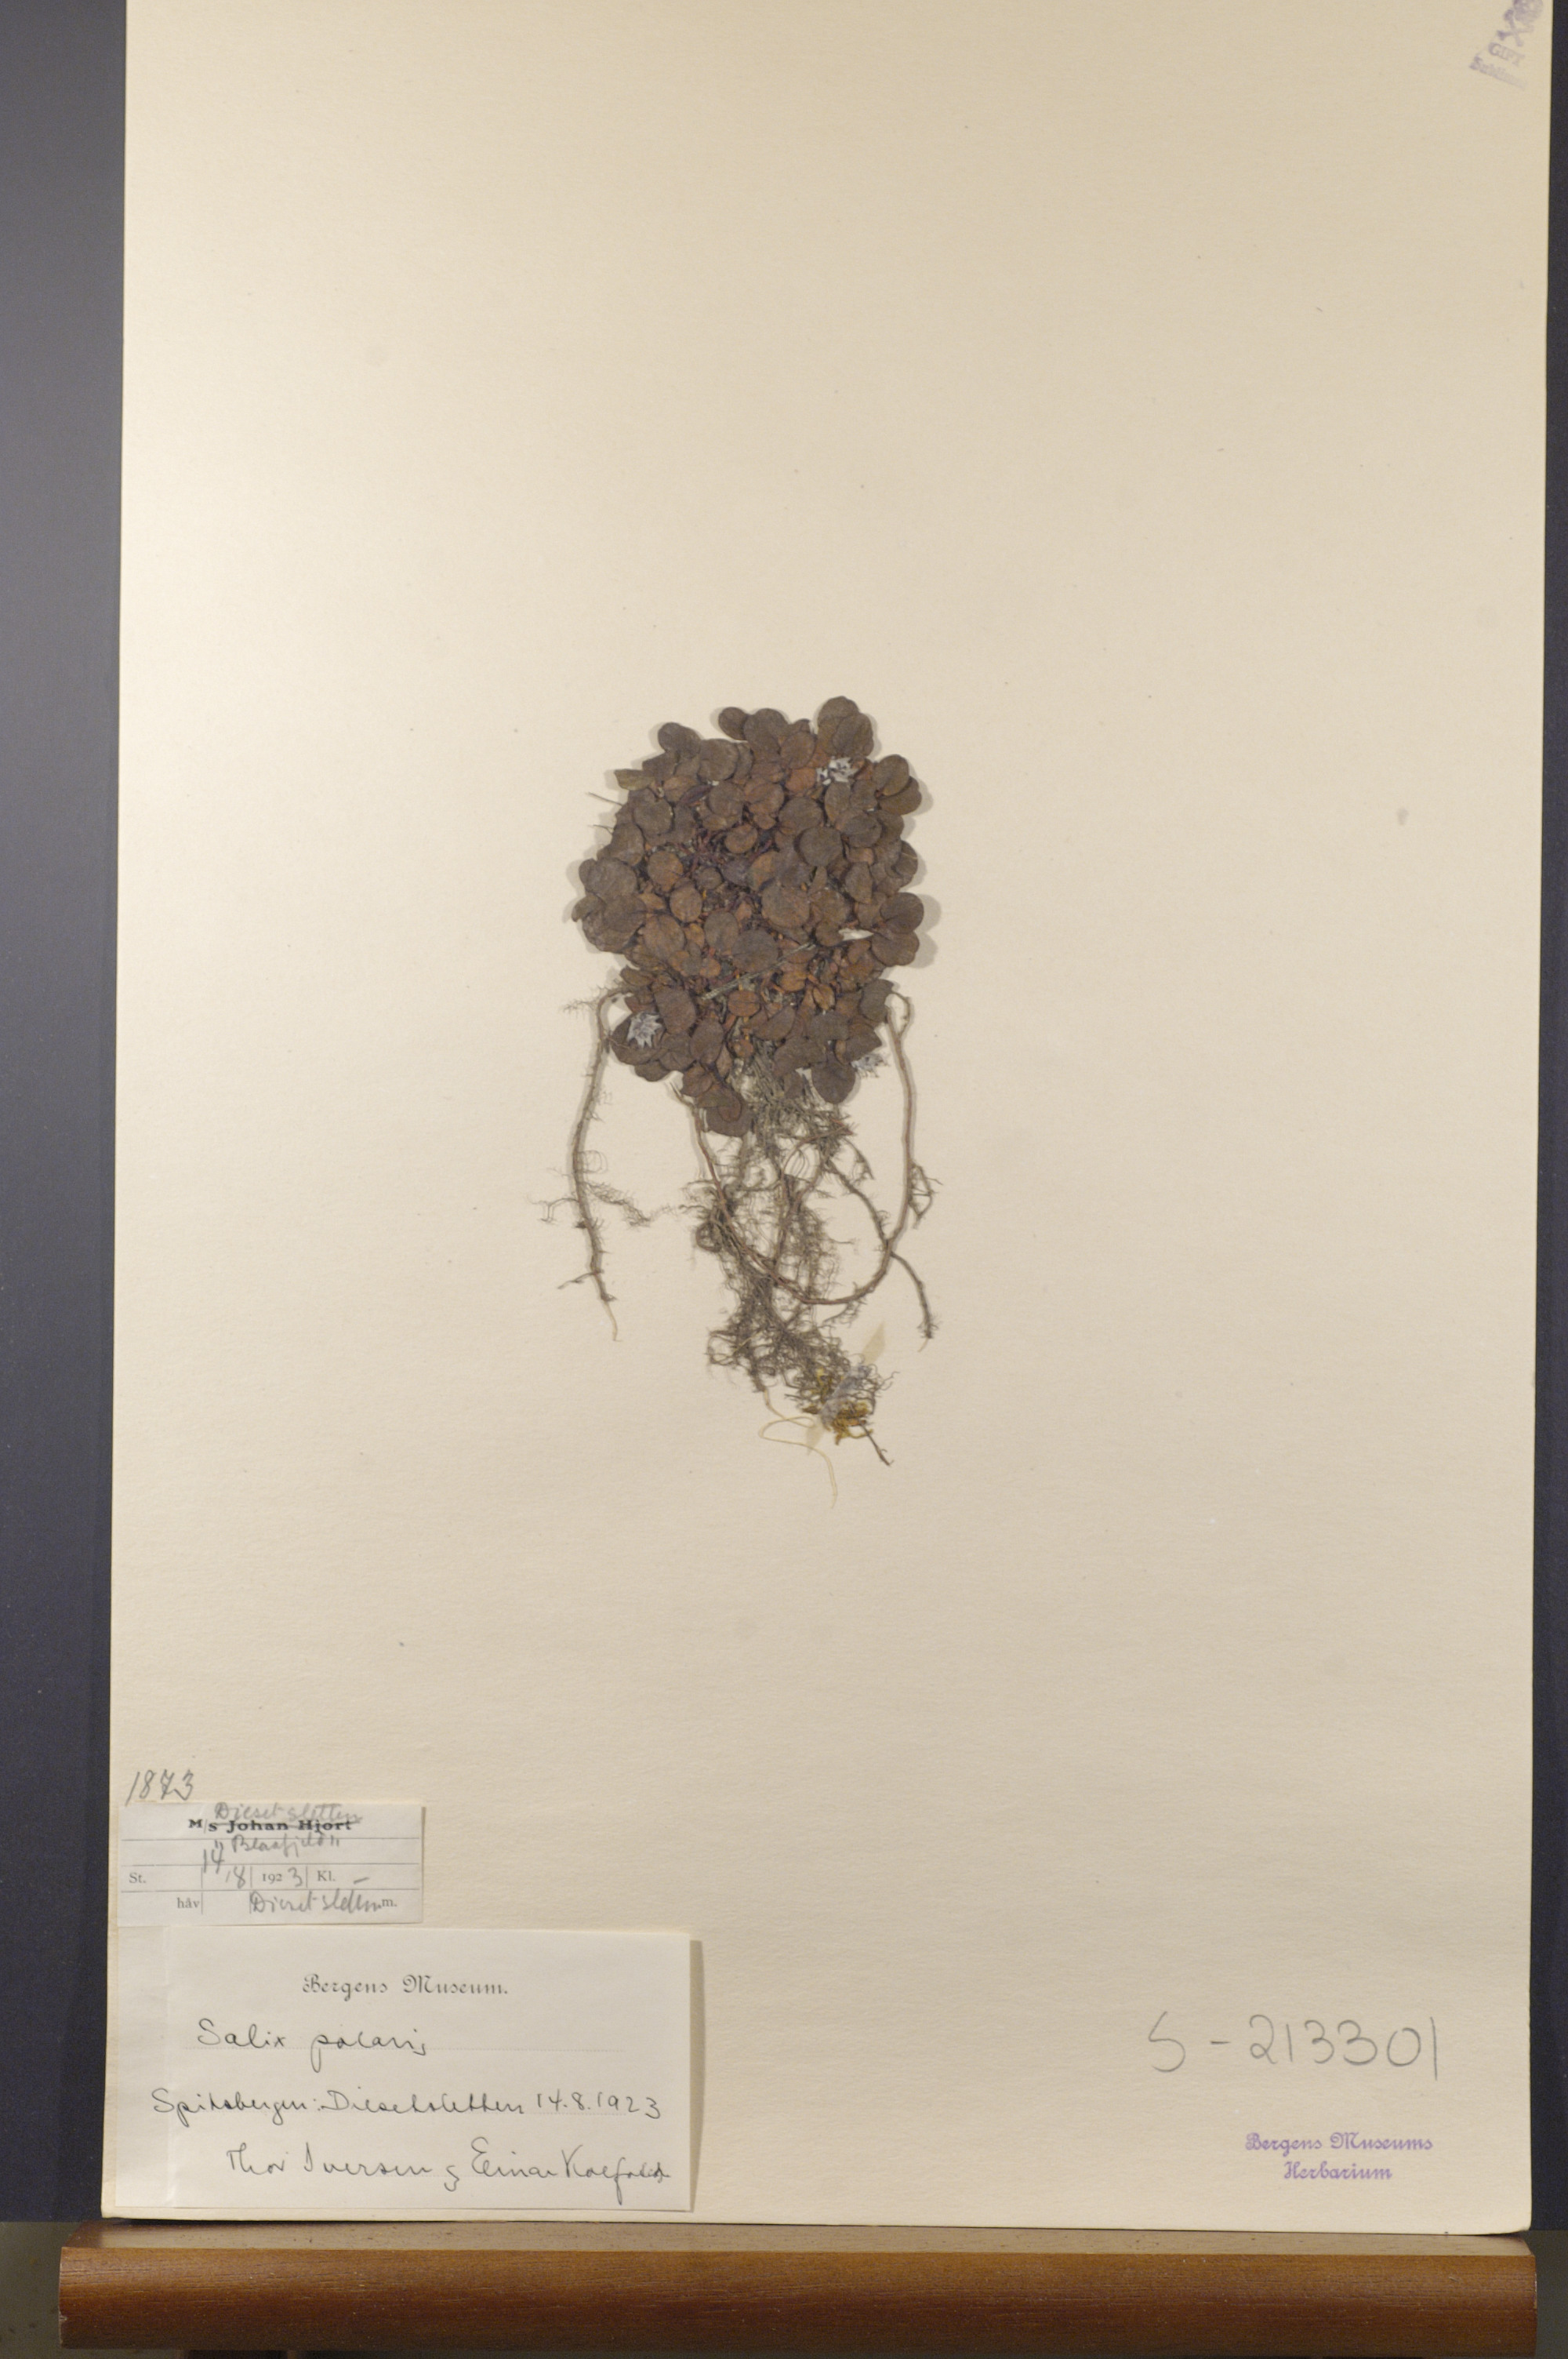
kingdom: Plantae
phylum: Tracheophyta
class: Magnoliopsida
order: Malpighiales
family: Salicaceae
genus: Salix
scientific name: Salix polaris
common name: Polar willow
